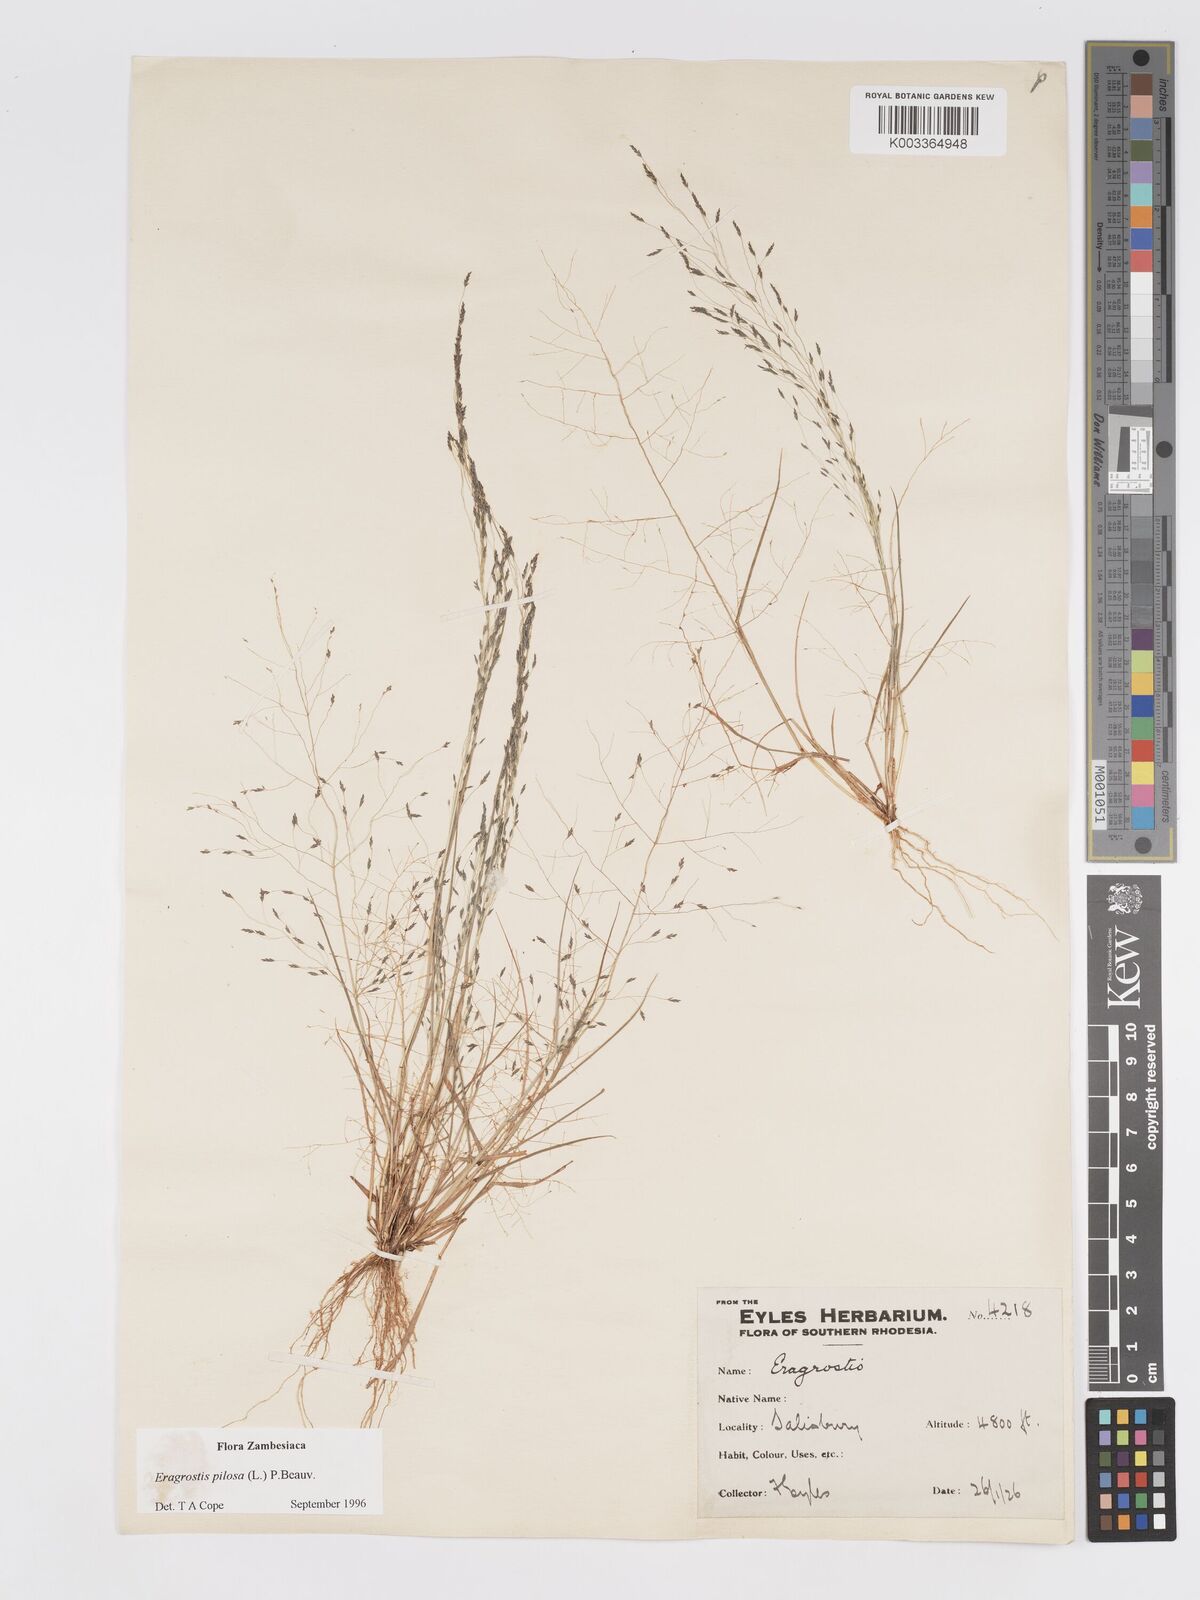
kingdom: Plantae
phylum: Tracheophyta
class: Liliopsida
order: Poales
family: Poaceae
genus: Eragrostis
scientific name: Eragrostis pilosa
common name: Indian lovegrass
